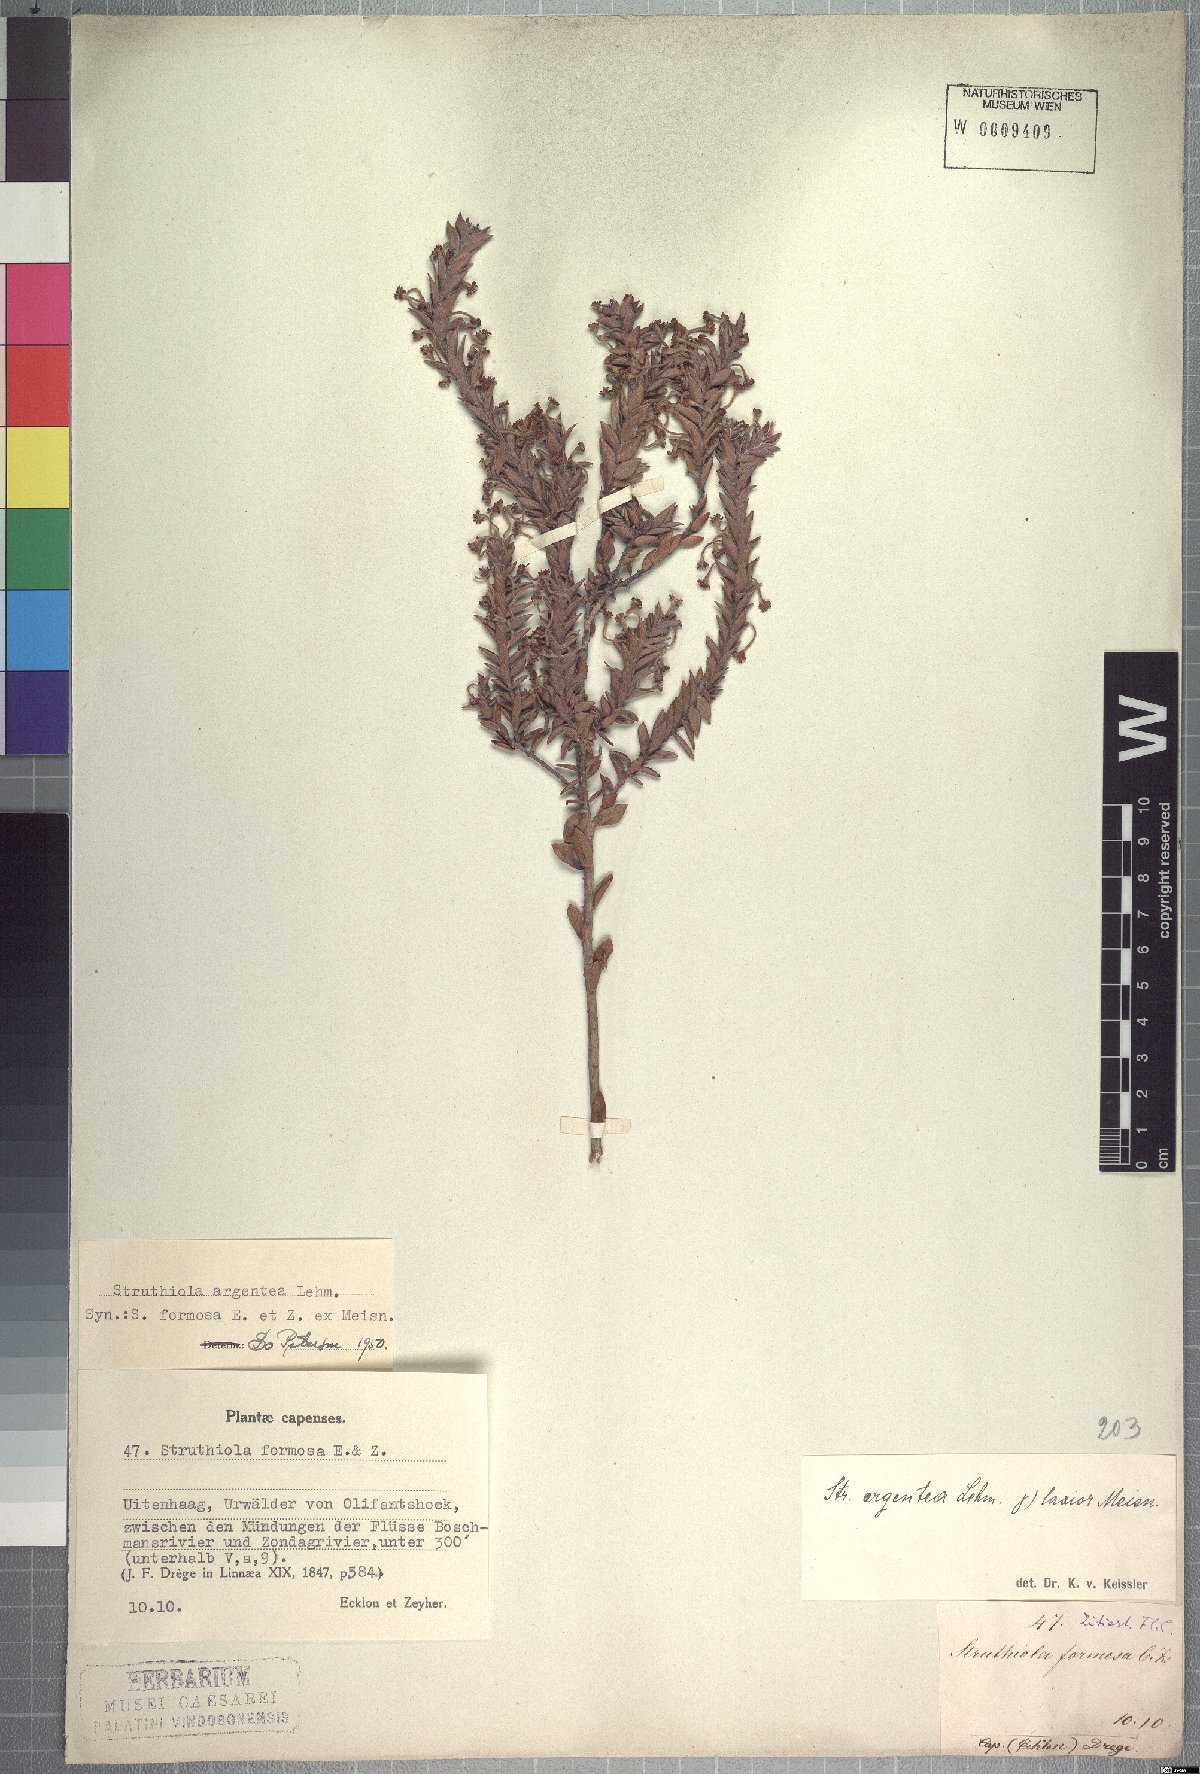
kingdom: Plantae
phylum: Tracheophyta
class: Magnoliopsida
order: Malvales
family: Thymelaeaceae
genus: Struthiola
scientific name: Struthiola argentea
